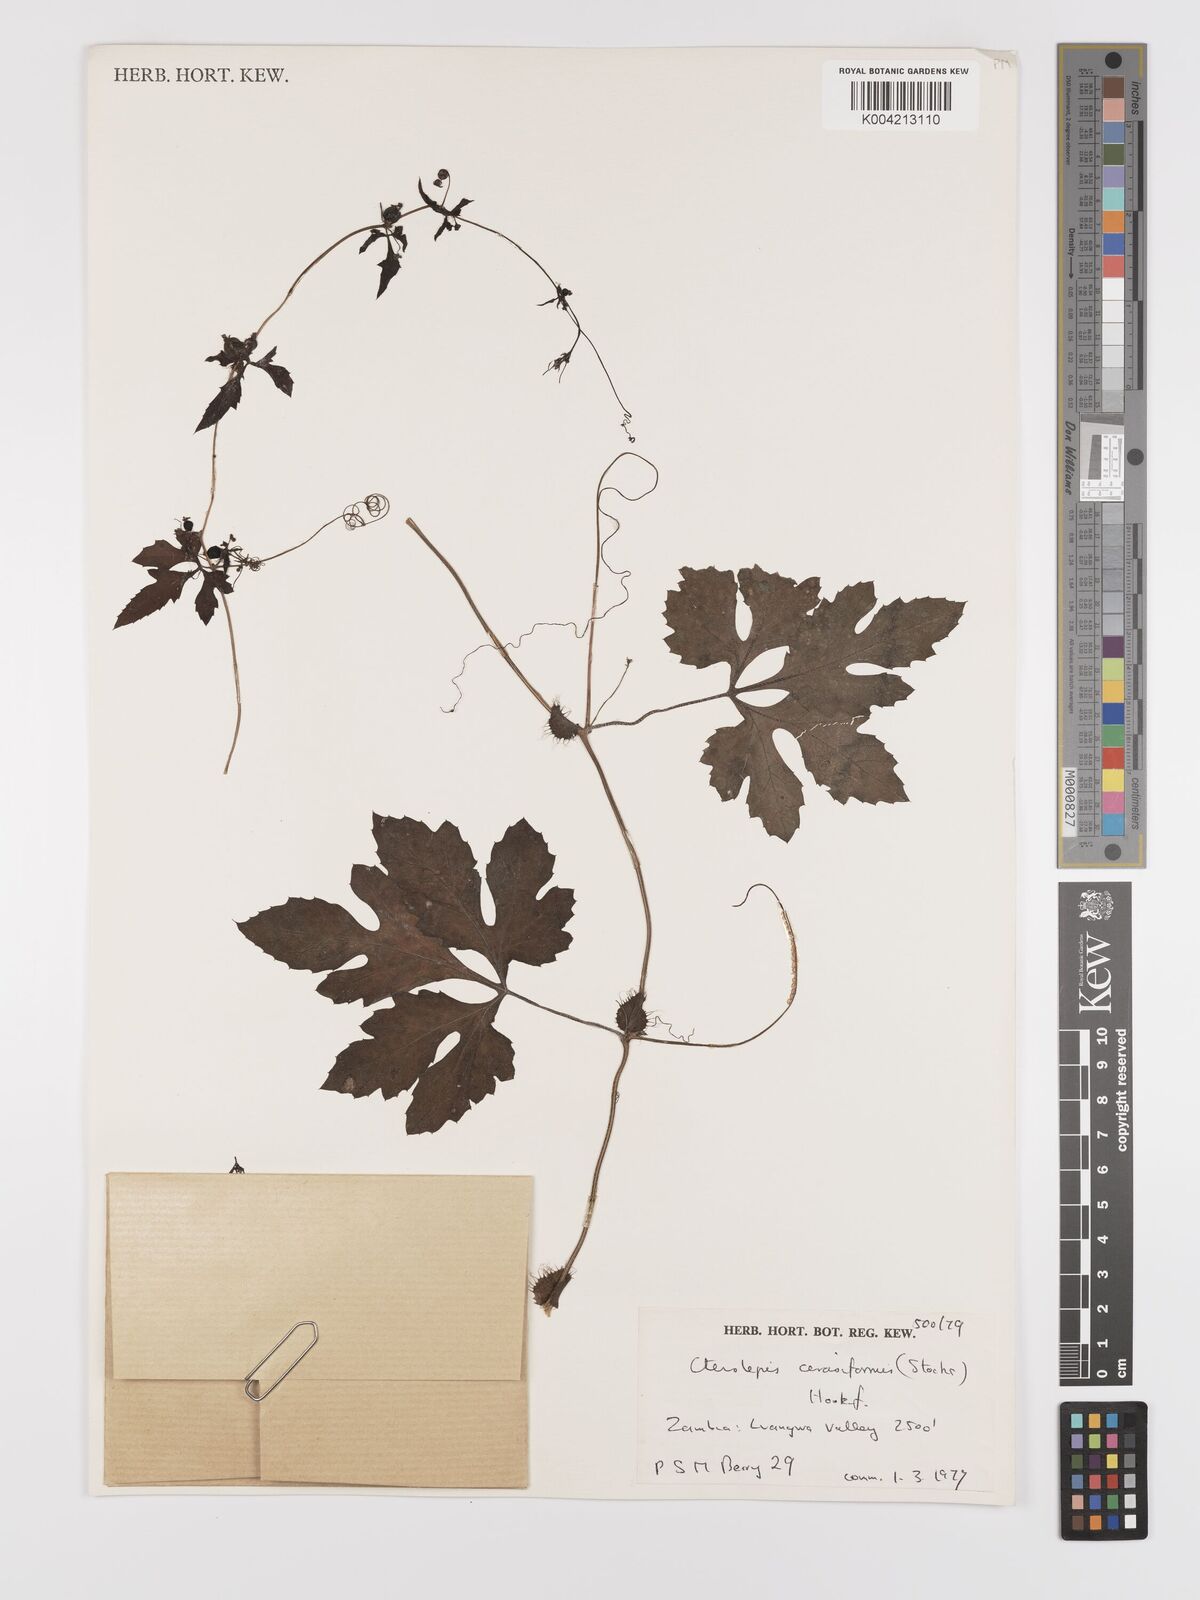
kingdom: Plantae
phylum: Tracheophyta
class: Magnoliopsida
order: Cucurbitales
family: Cucurbitaceae
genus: Blastania
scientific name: Blastania cerasiformis
